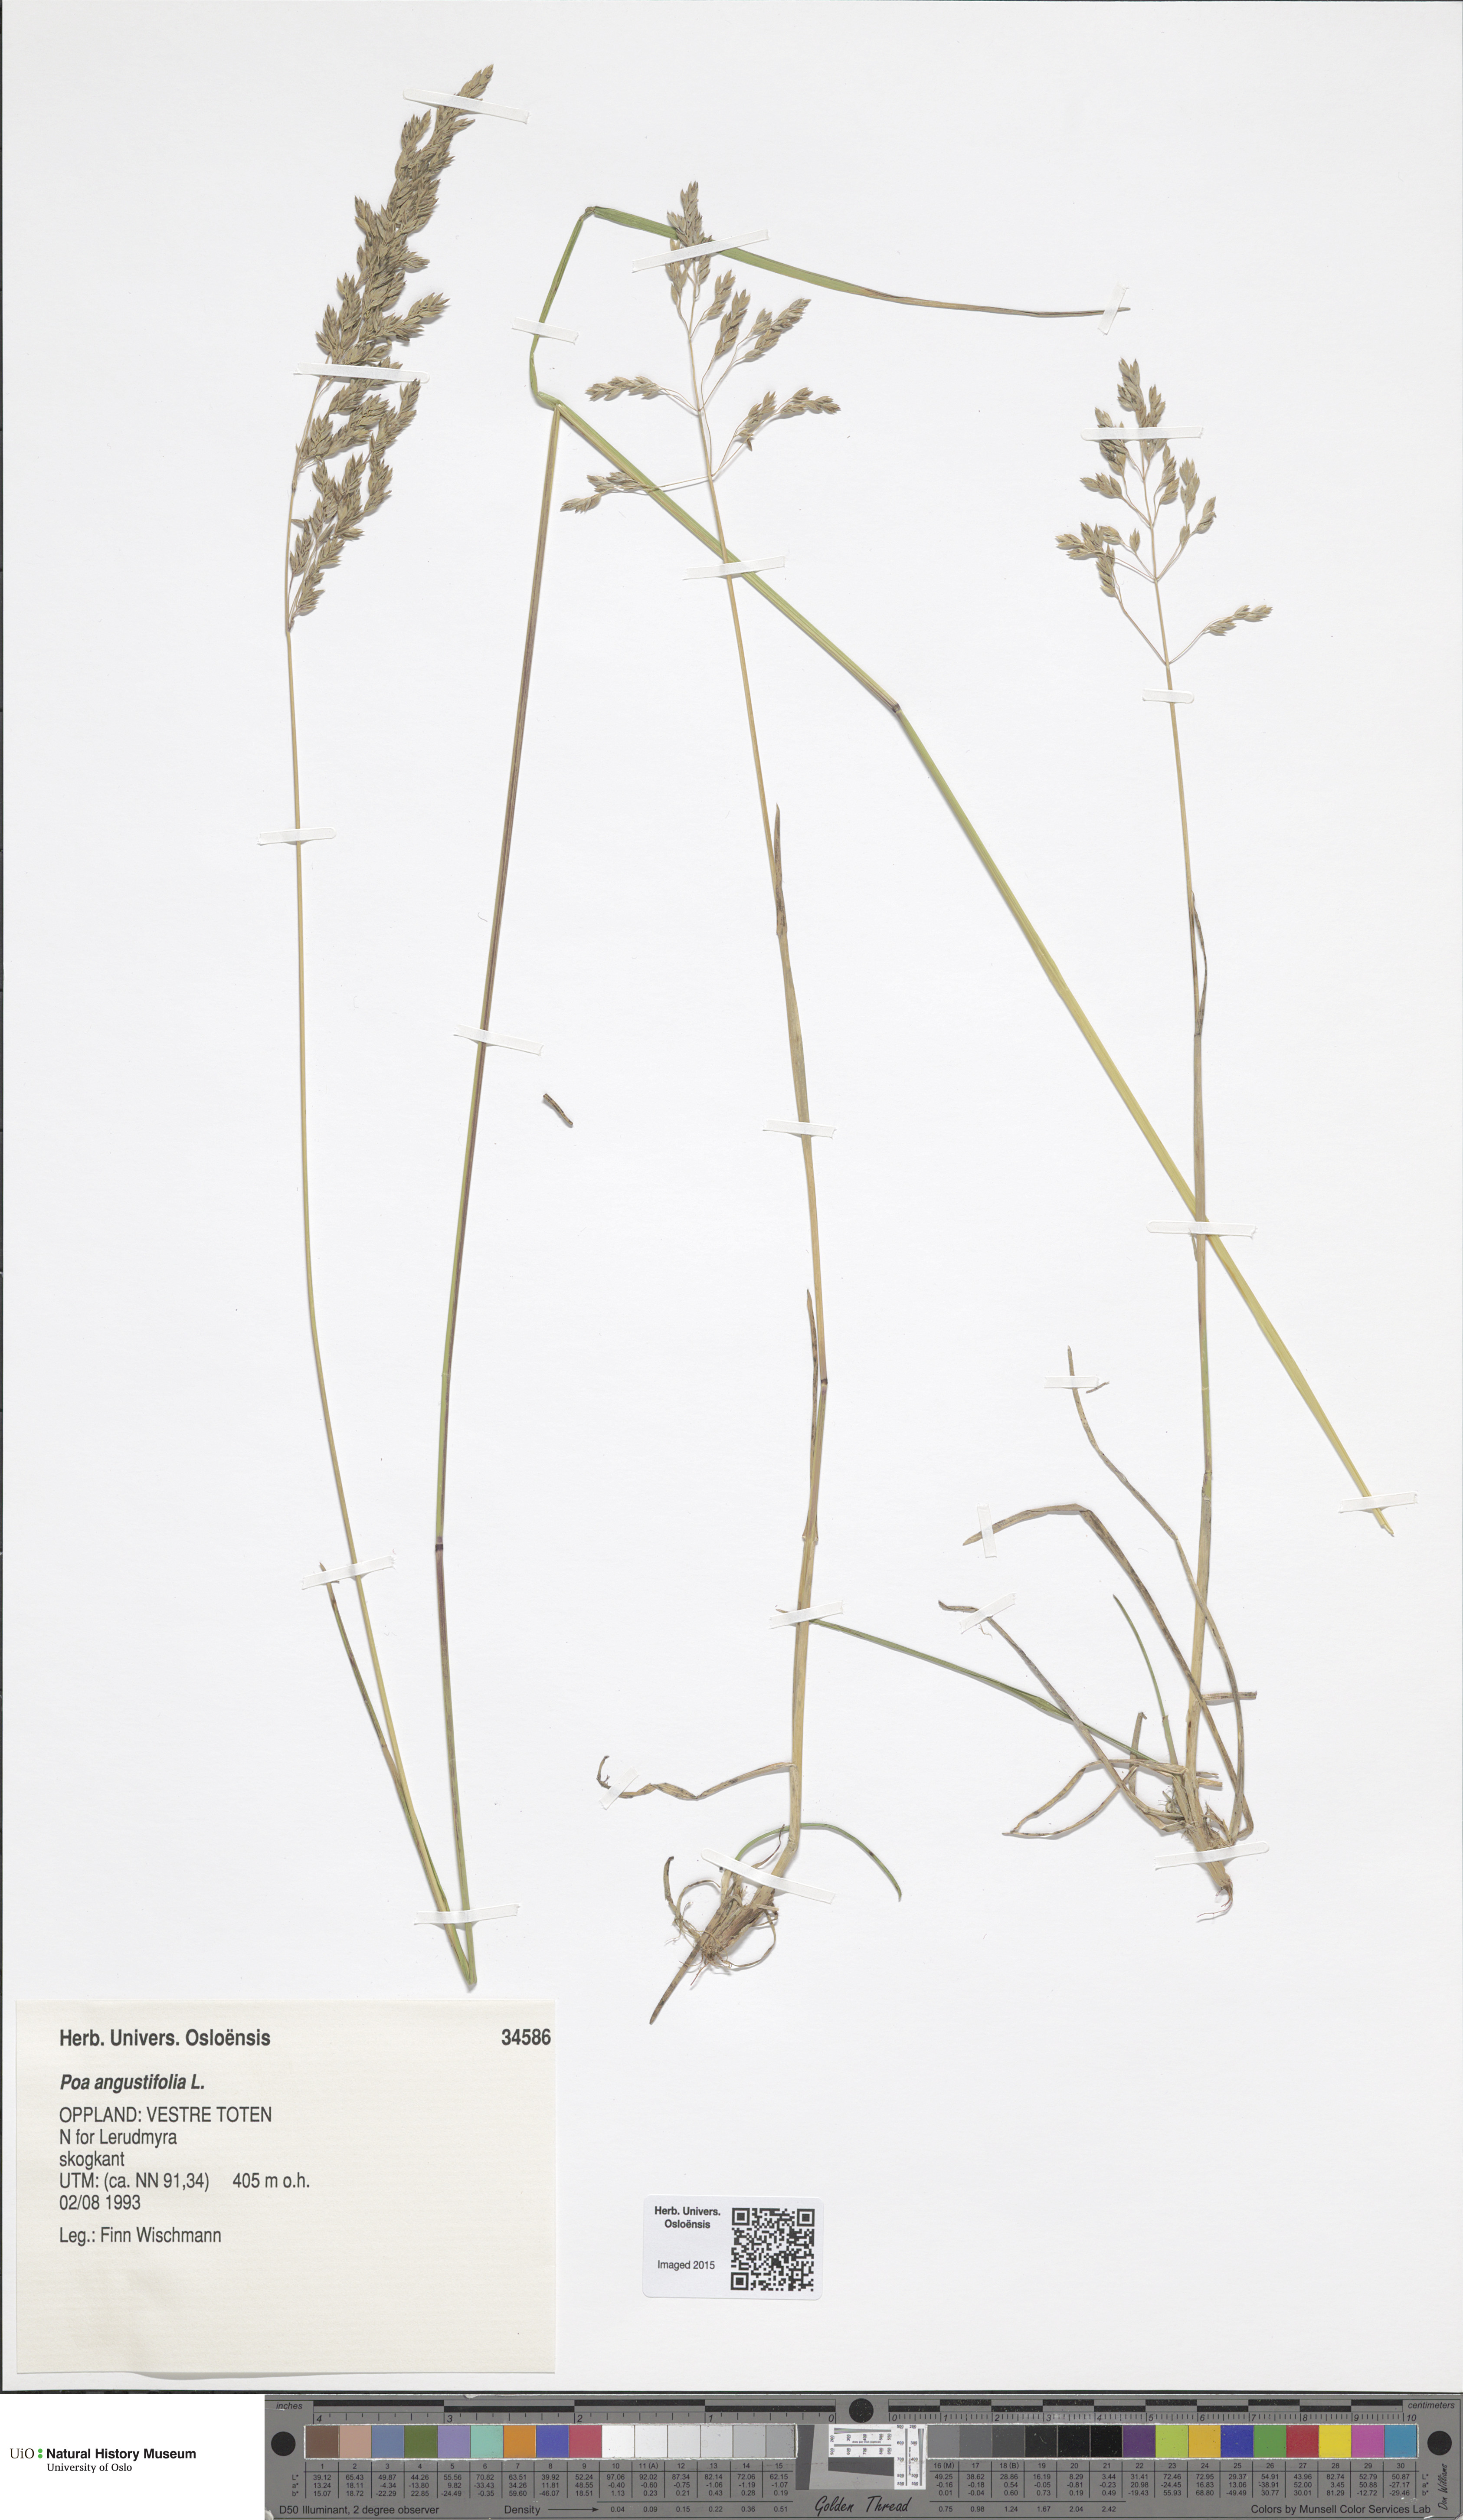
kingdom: Plantae
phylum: Tracheophyta
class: Liliopsida
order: Poales
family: Poaceae
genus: Poa
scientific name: Poa angustifolia
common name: Narrow-leaved meadow-grass
